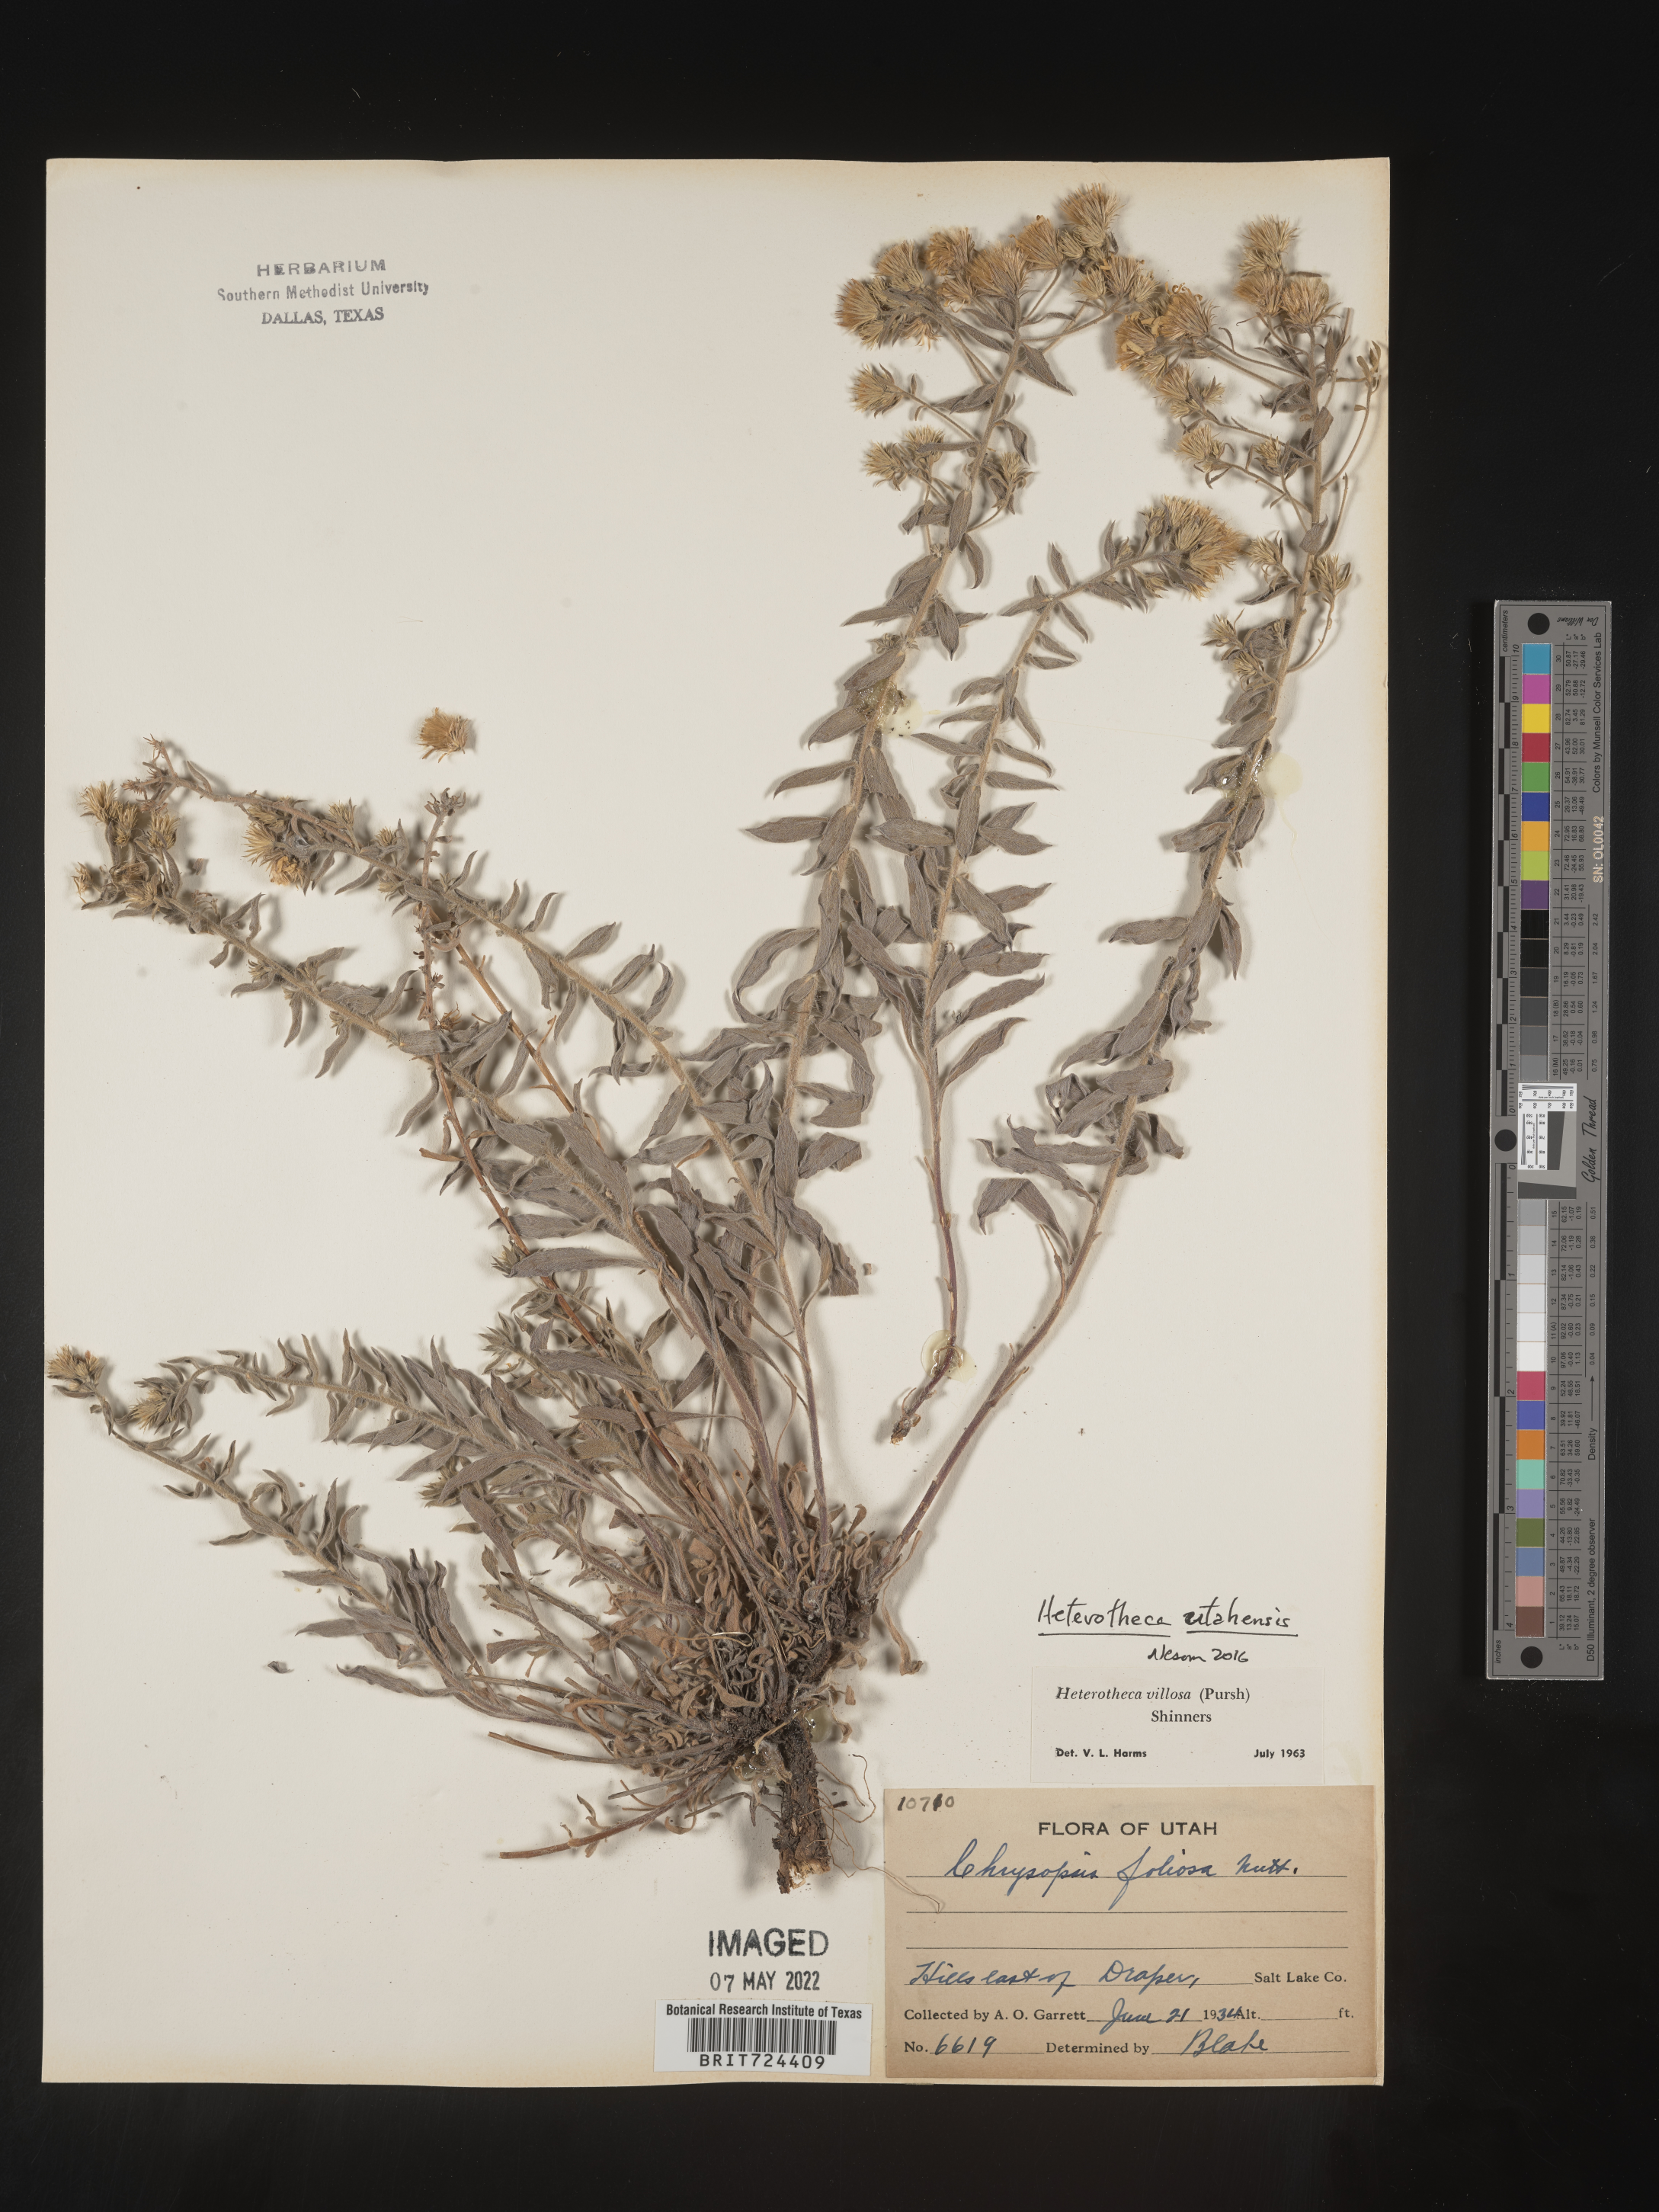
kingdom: Plantae
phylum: Tracheophyta
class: Magnoliopsida
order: Asterales
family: Asteraceae
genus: Heterotheca
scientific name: Heterotheca utahensis
